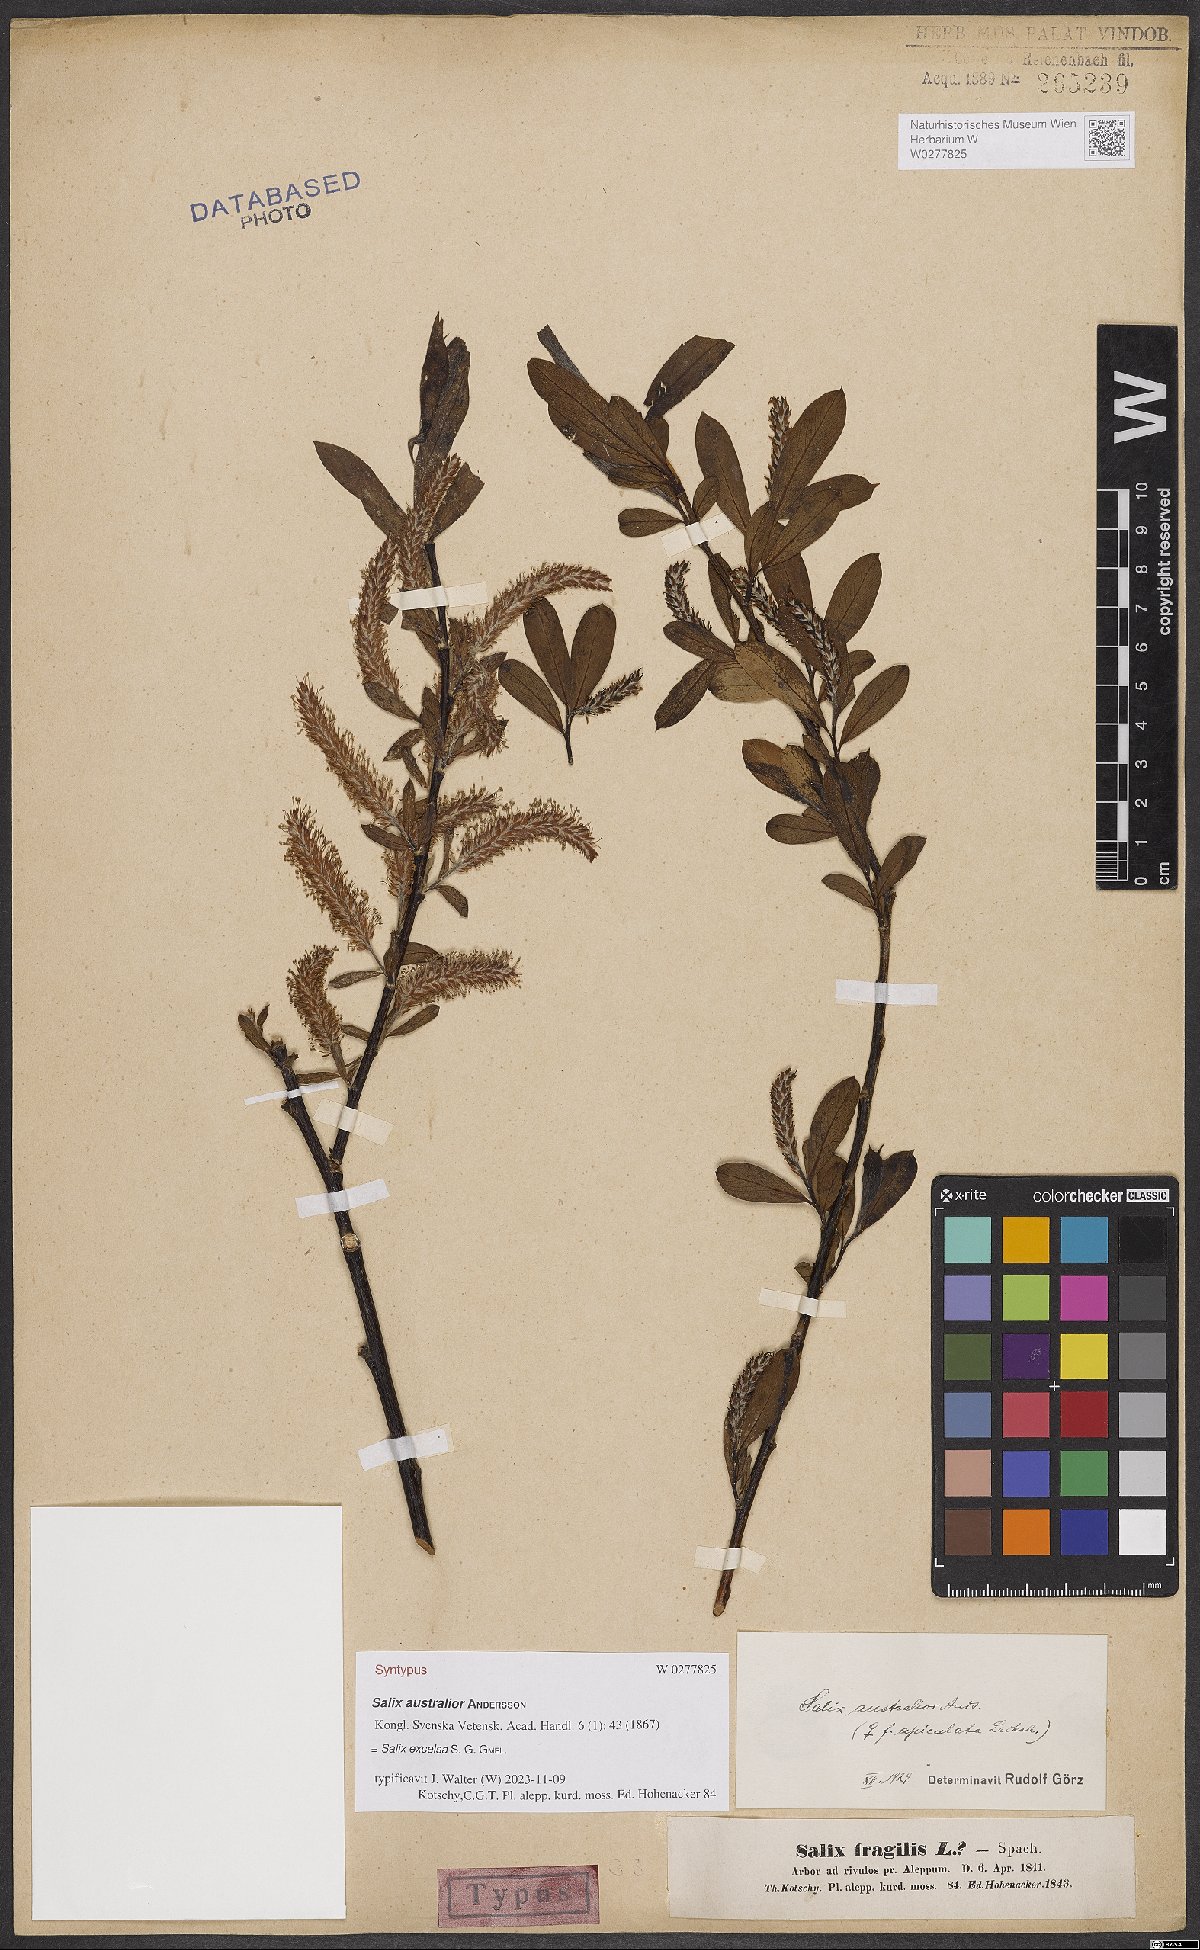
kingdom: Plantae
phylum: Tracheophyta
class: Magnoliopsida
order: Malpighiales
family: Salicaceae
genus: Salix
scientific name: Salix excelsa
